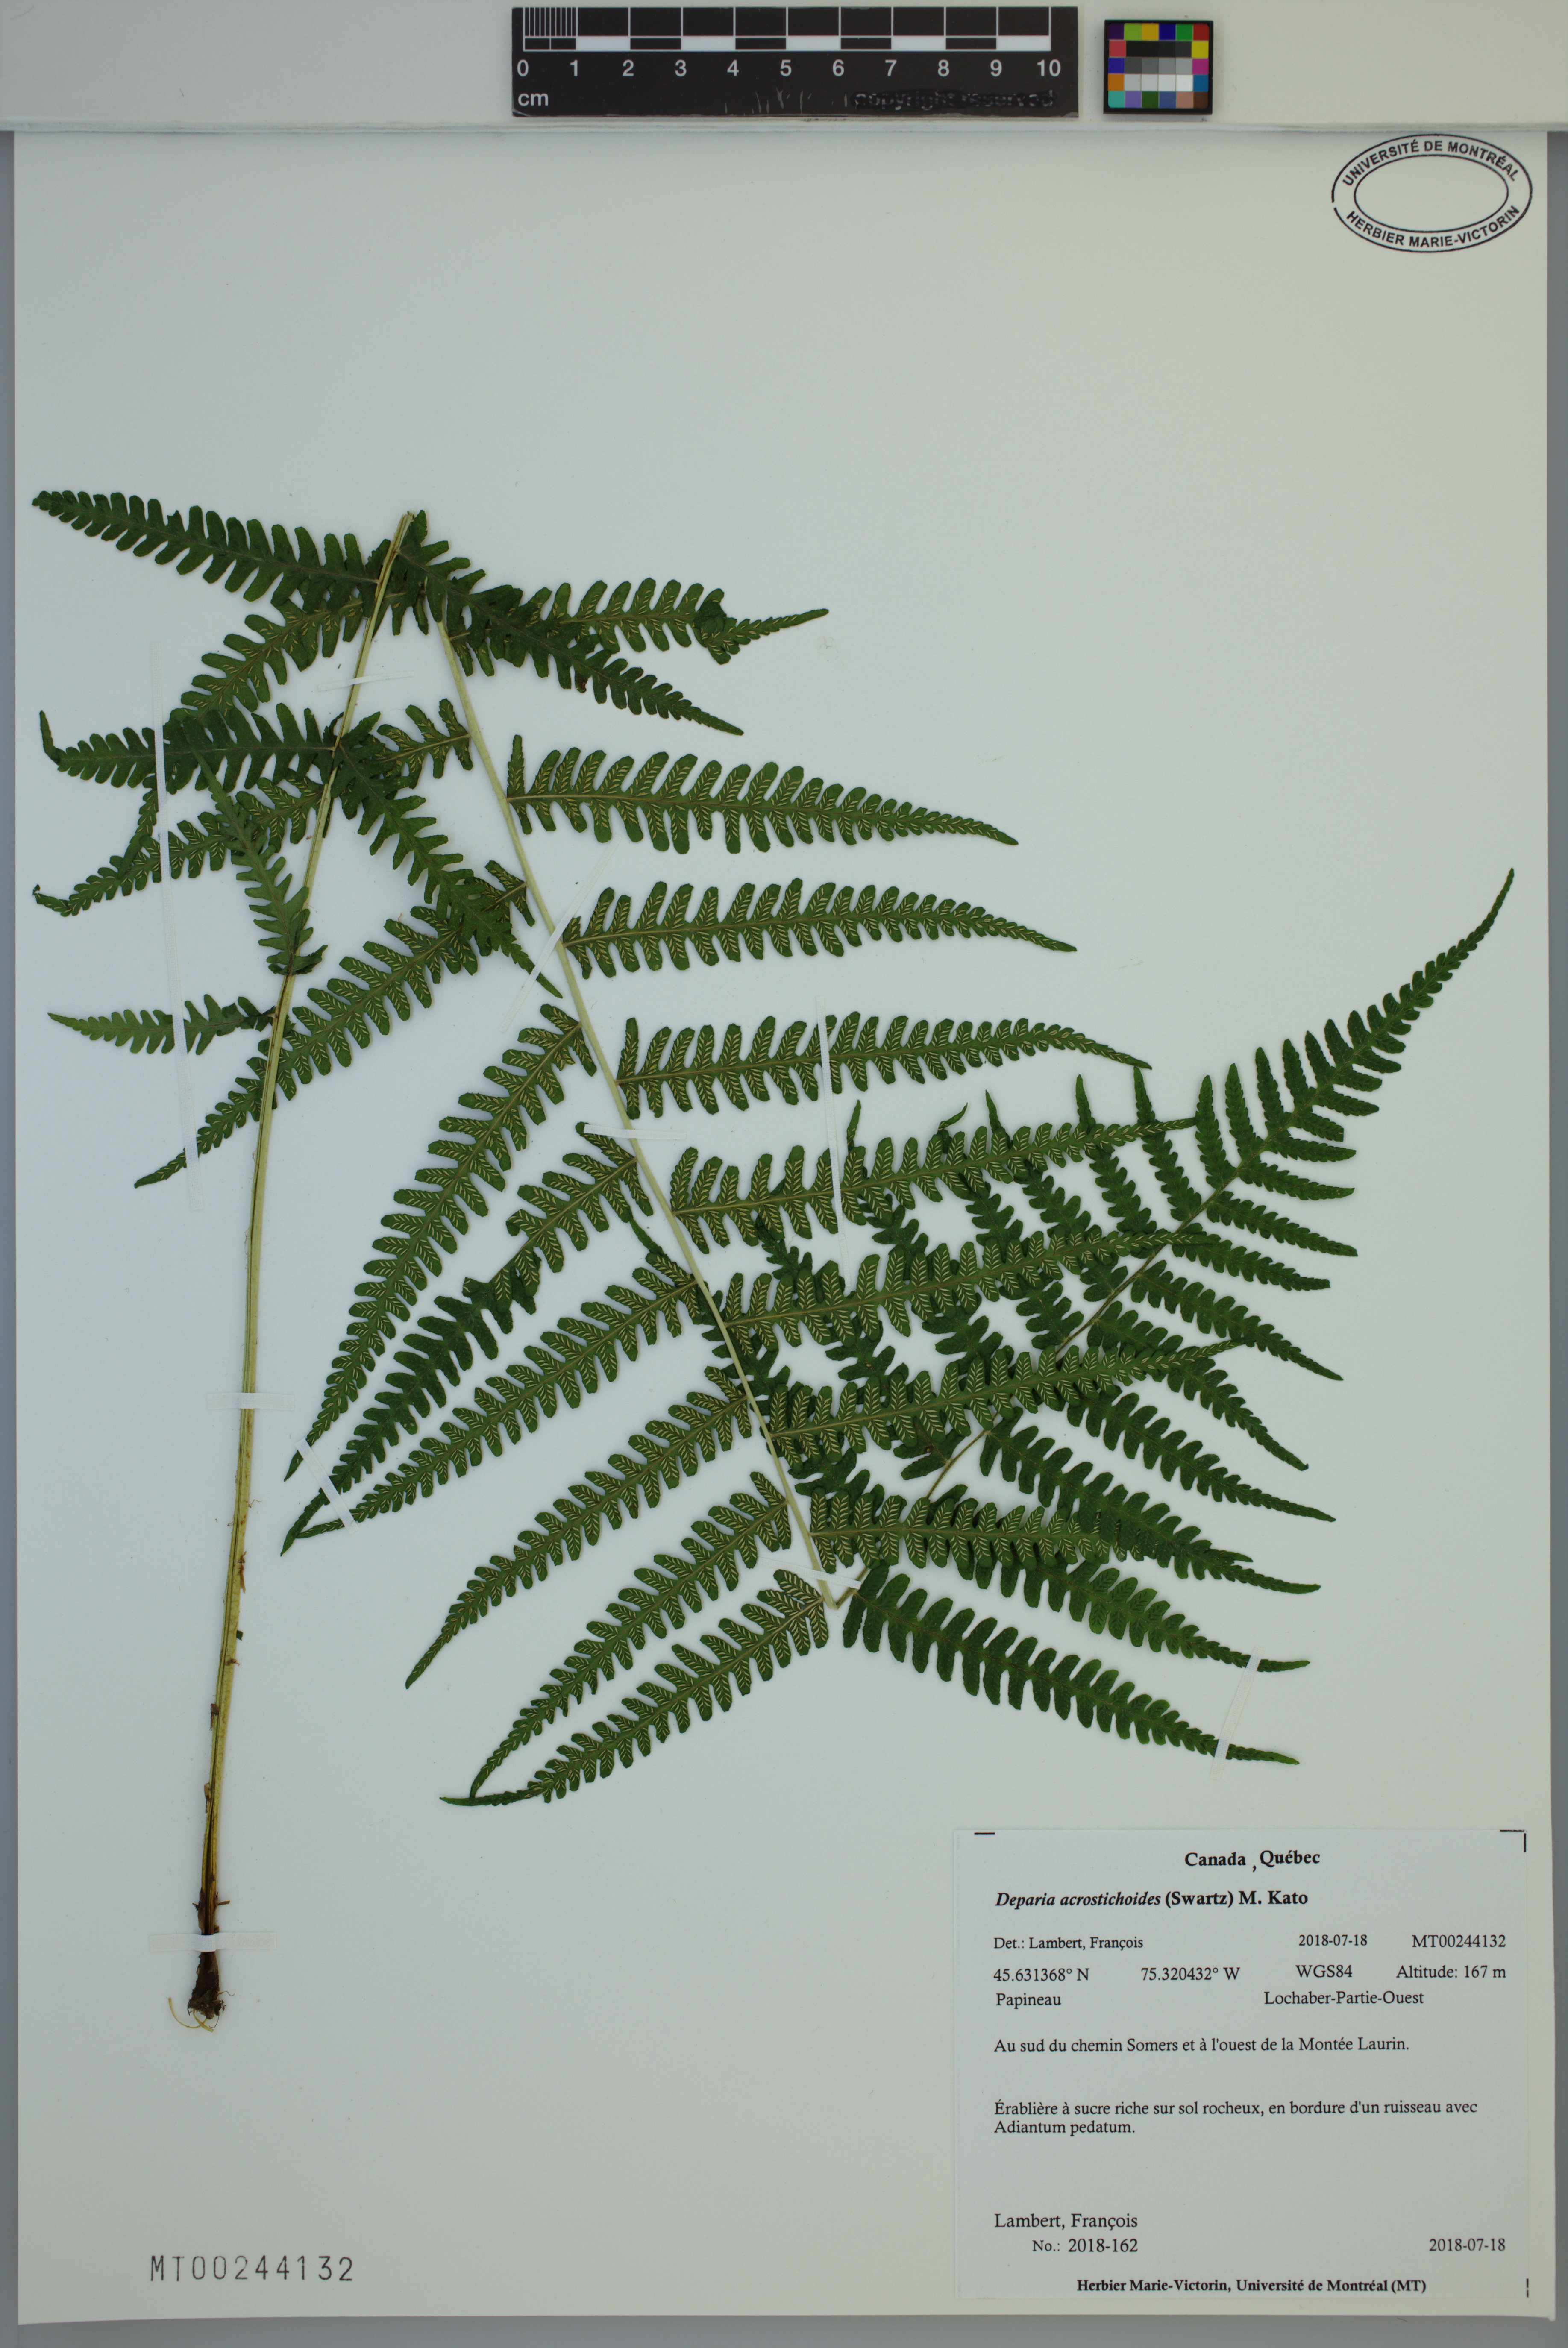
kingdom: Plantae
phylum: Tracheophyta
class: Polypodiopsida
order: Polypodiales
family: Athyriaceae
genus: Deparia
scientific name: Deparia acrostichoides
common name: Silver false spleenwort
